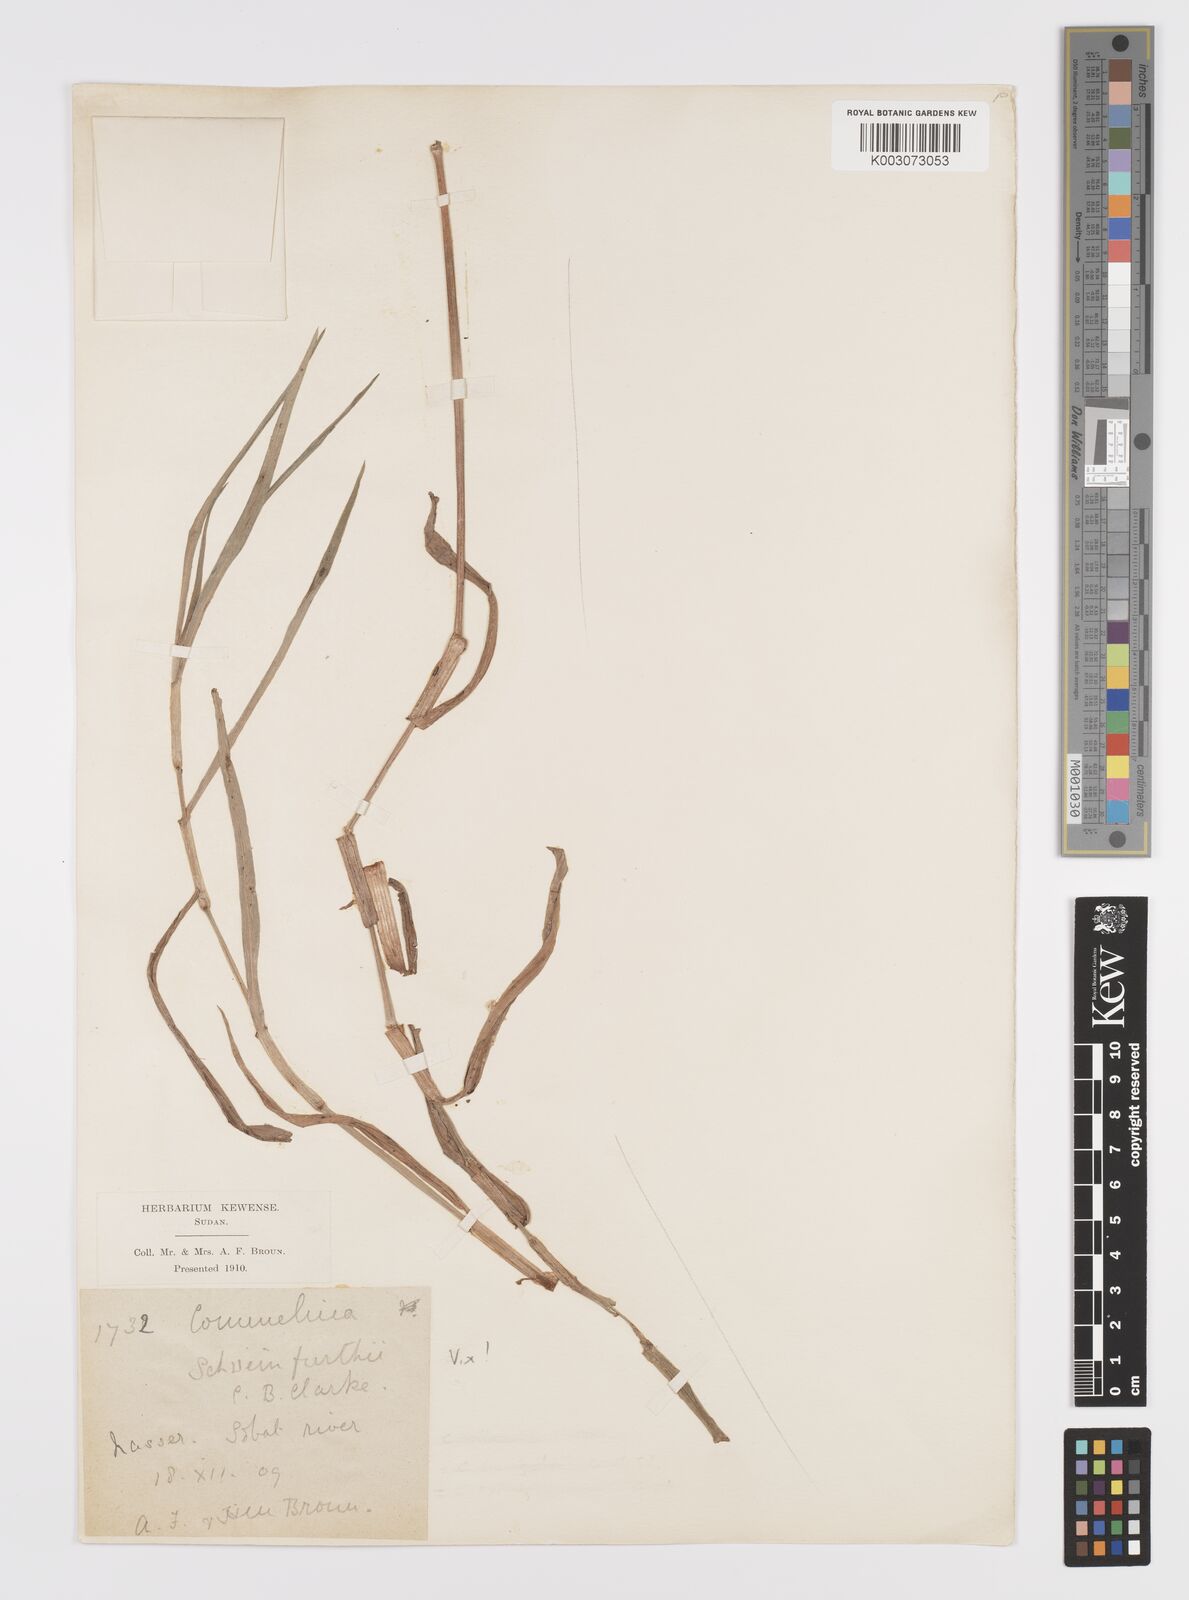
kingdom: Plantae
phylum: Tracheophyta
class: Liliopsida
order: Commelinales
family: Commelinaceae
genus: Commelina
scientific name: Commelina erecta
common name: Blousel blommetjie
